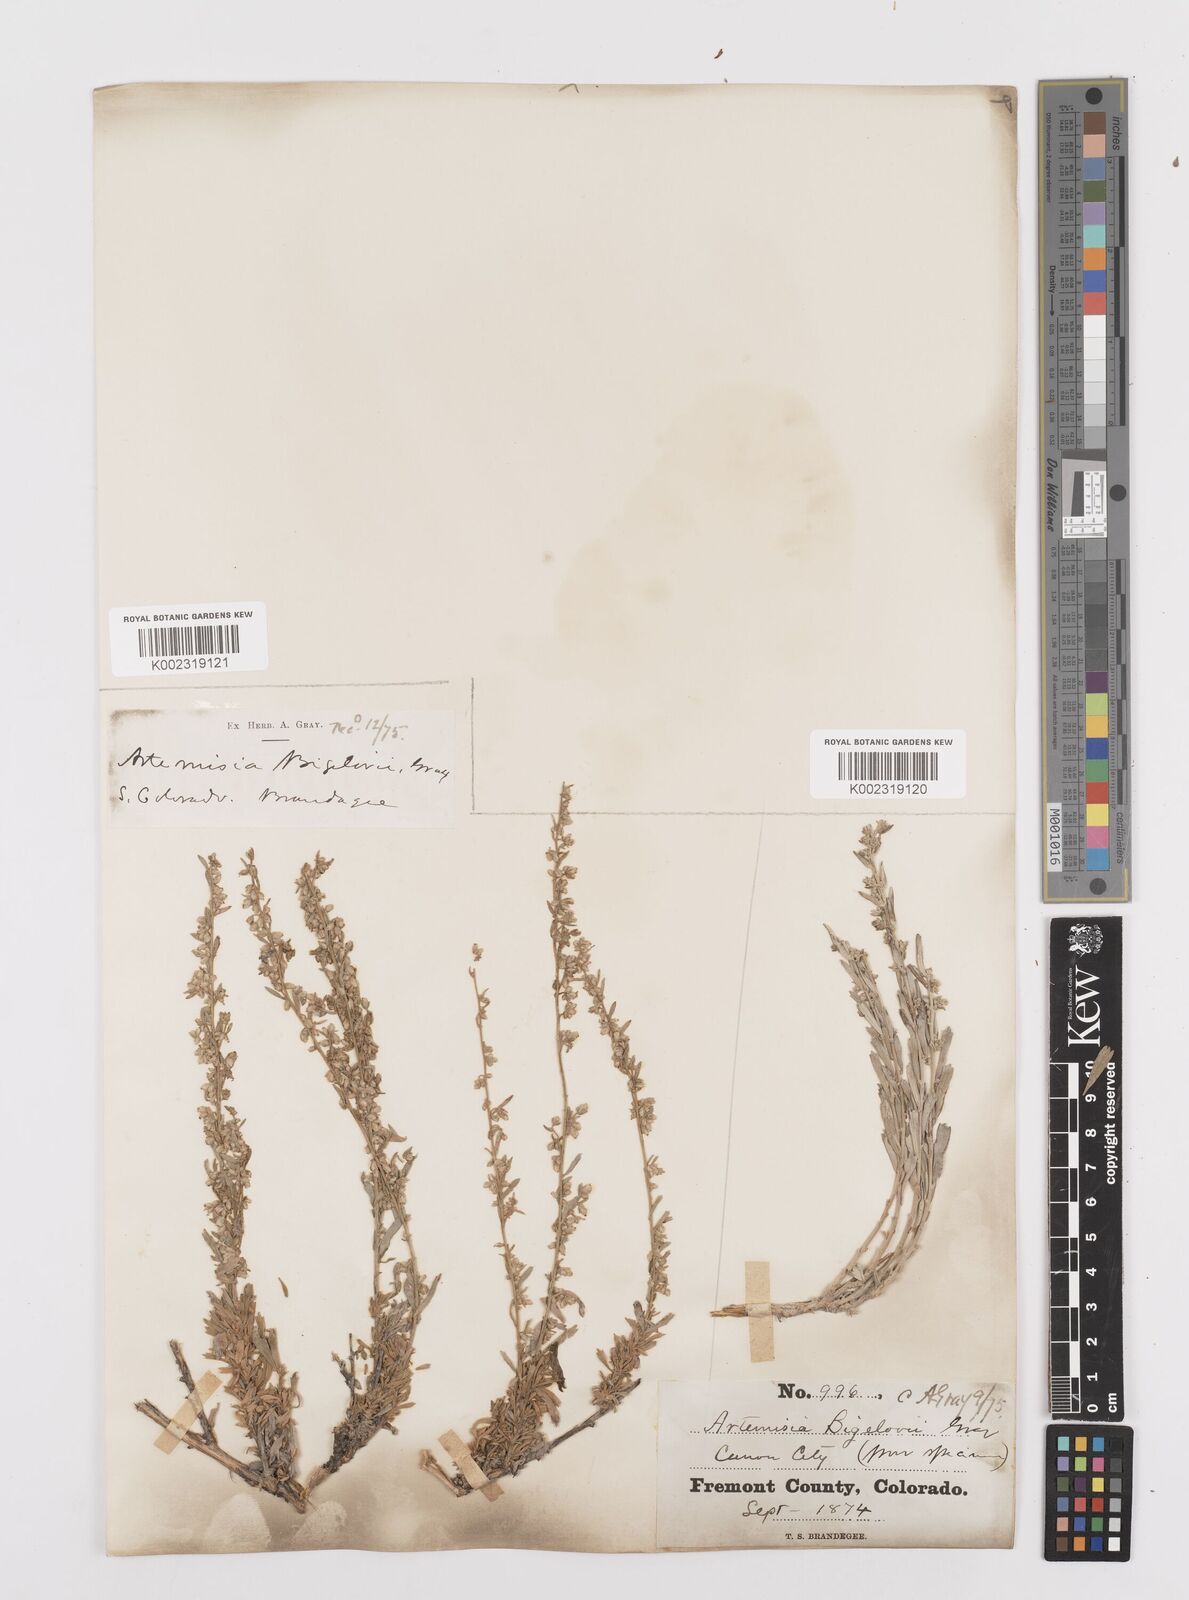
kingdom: Plantae
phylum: Tracheophyta
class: Magnoliopsida
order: Asterales
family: Asteraceae
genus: Artemisia
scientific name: Artemisia cana
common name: Silver sagebrush
